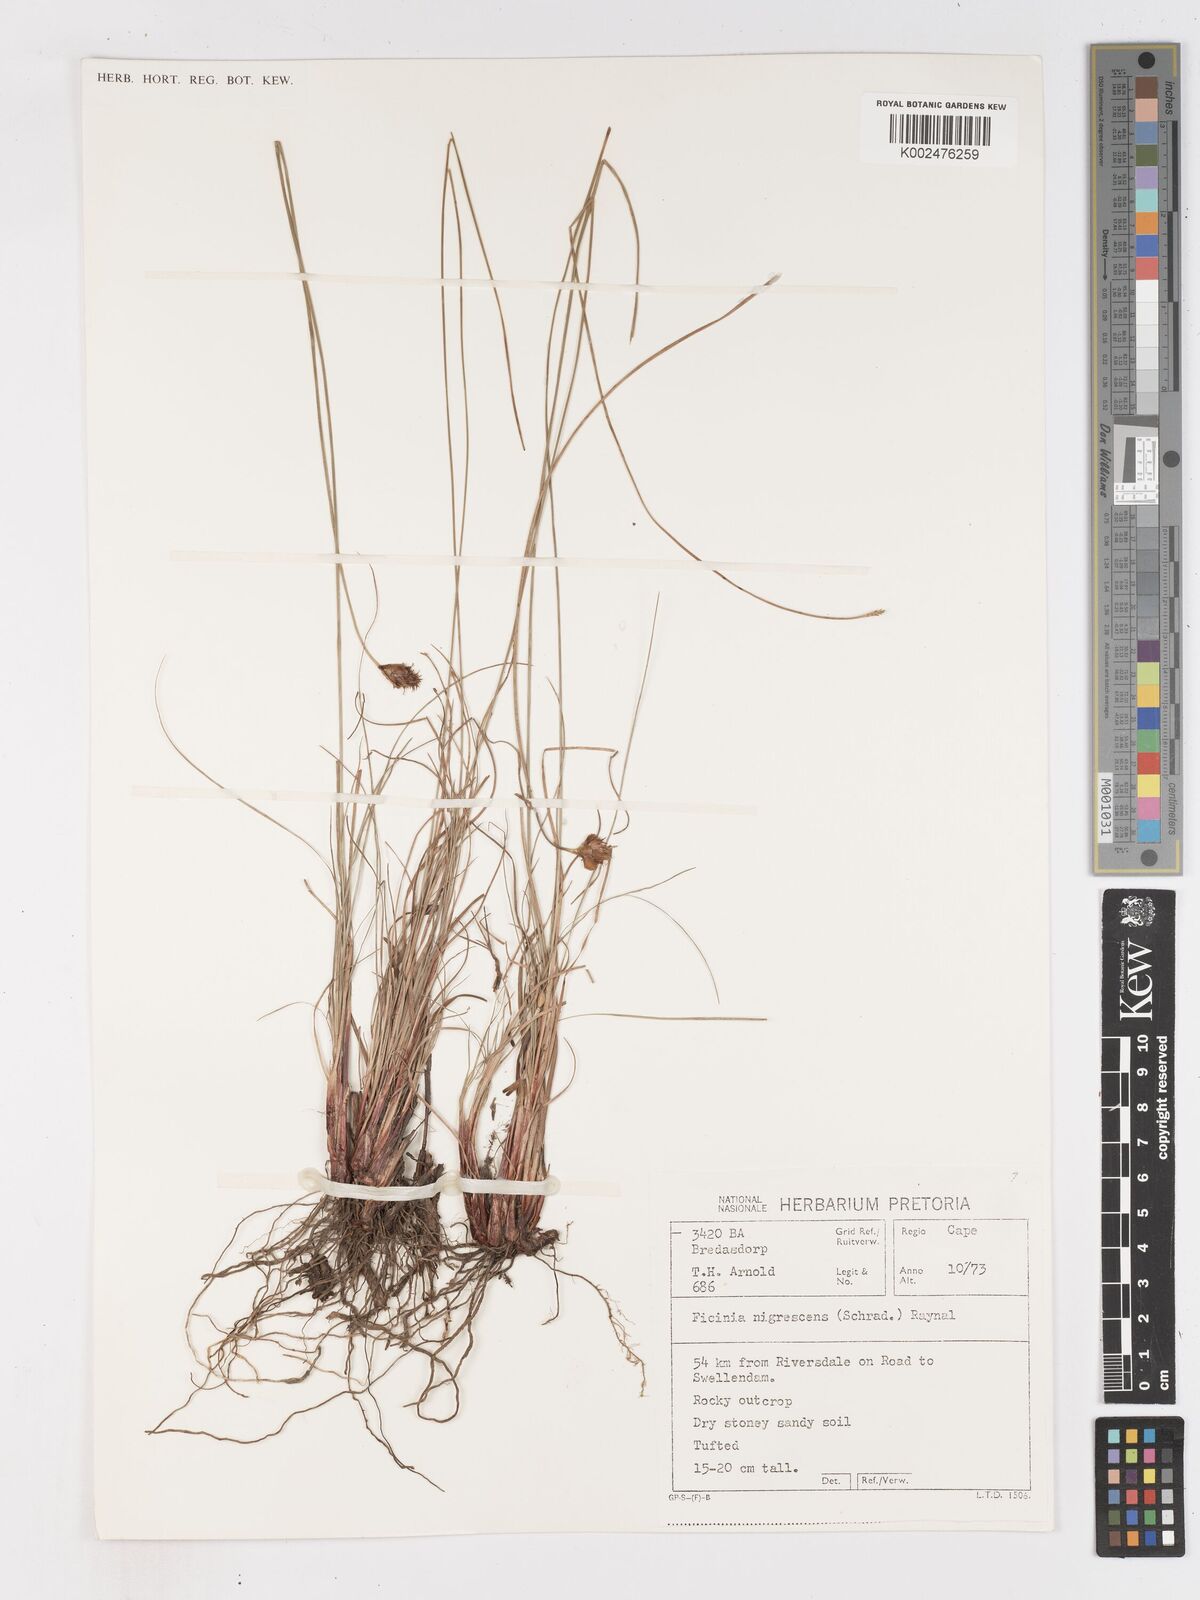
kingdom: Plantae
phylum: Tracheophyta
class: Liliopsida
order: Poales
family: Cyperaceae
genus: Ficinia
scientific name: Ficinia nigrescens
